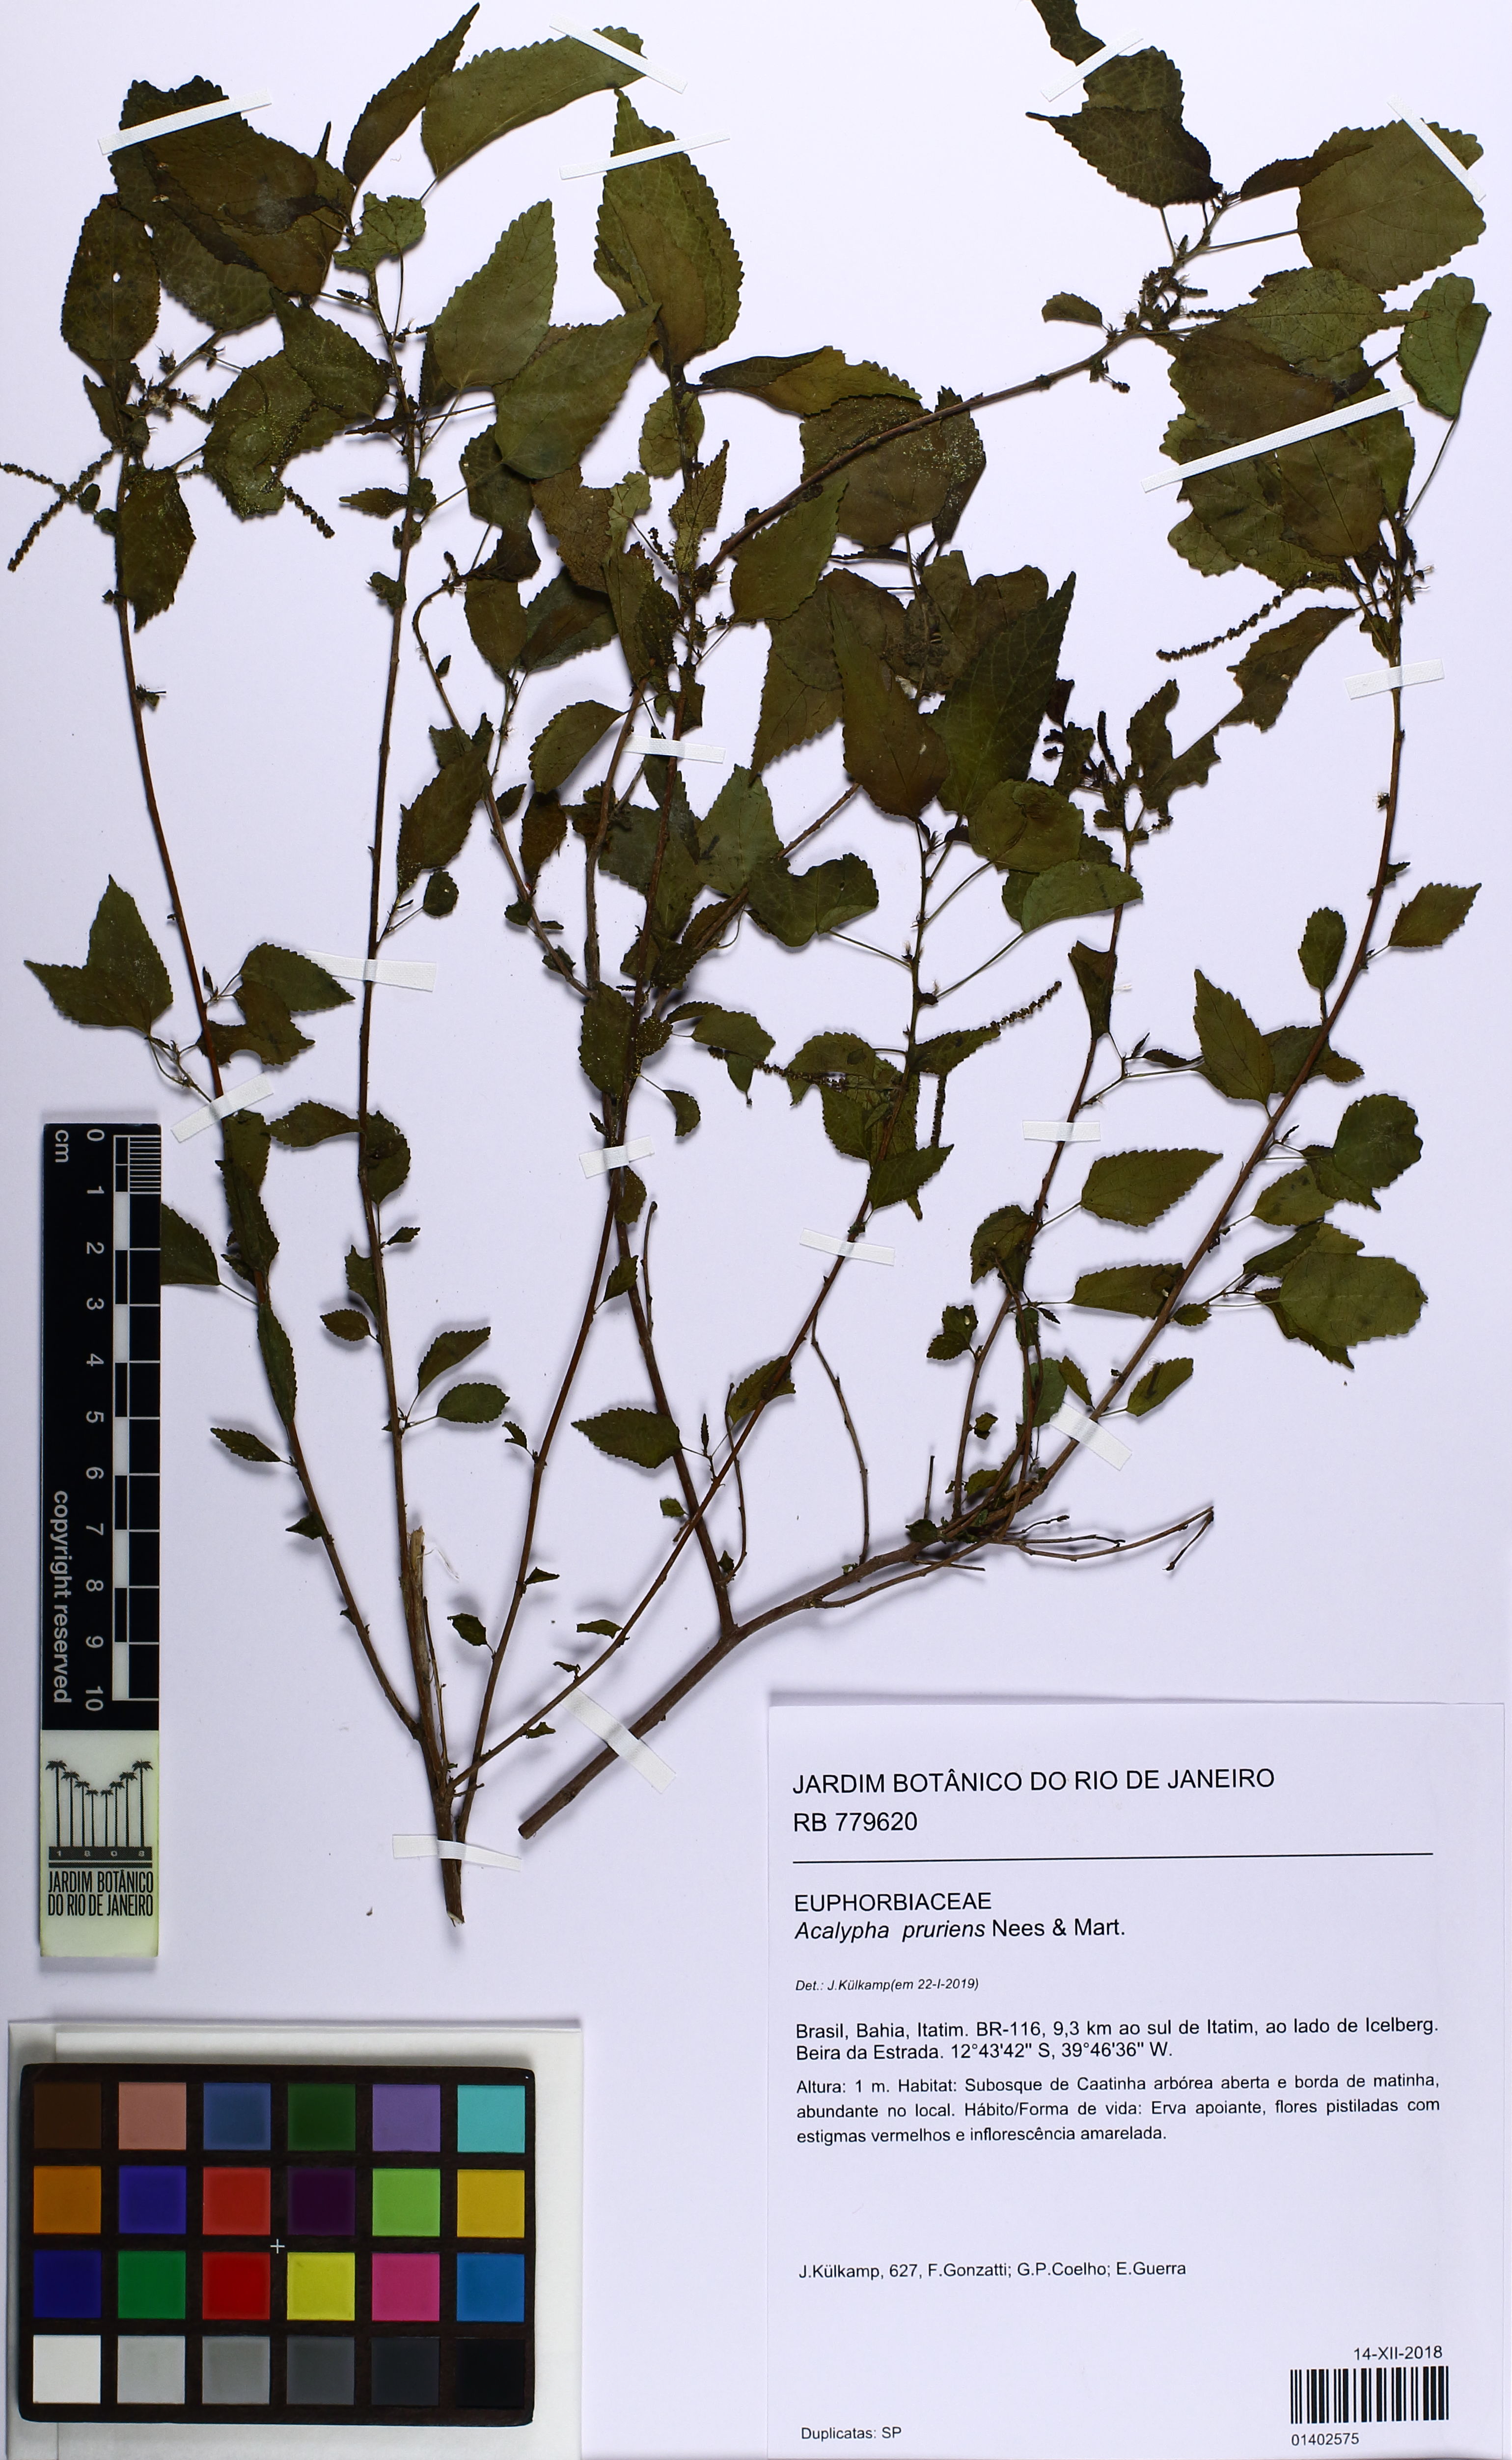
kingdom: Plantae
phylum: Tracheophyta
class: Magnoliopsida
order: Malpighiales
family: Euphorbiaceae
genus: Acalypha
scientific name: Acalypha multicaulis
